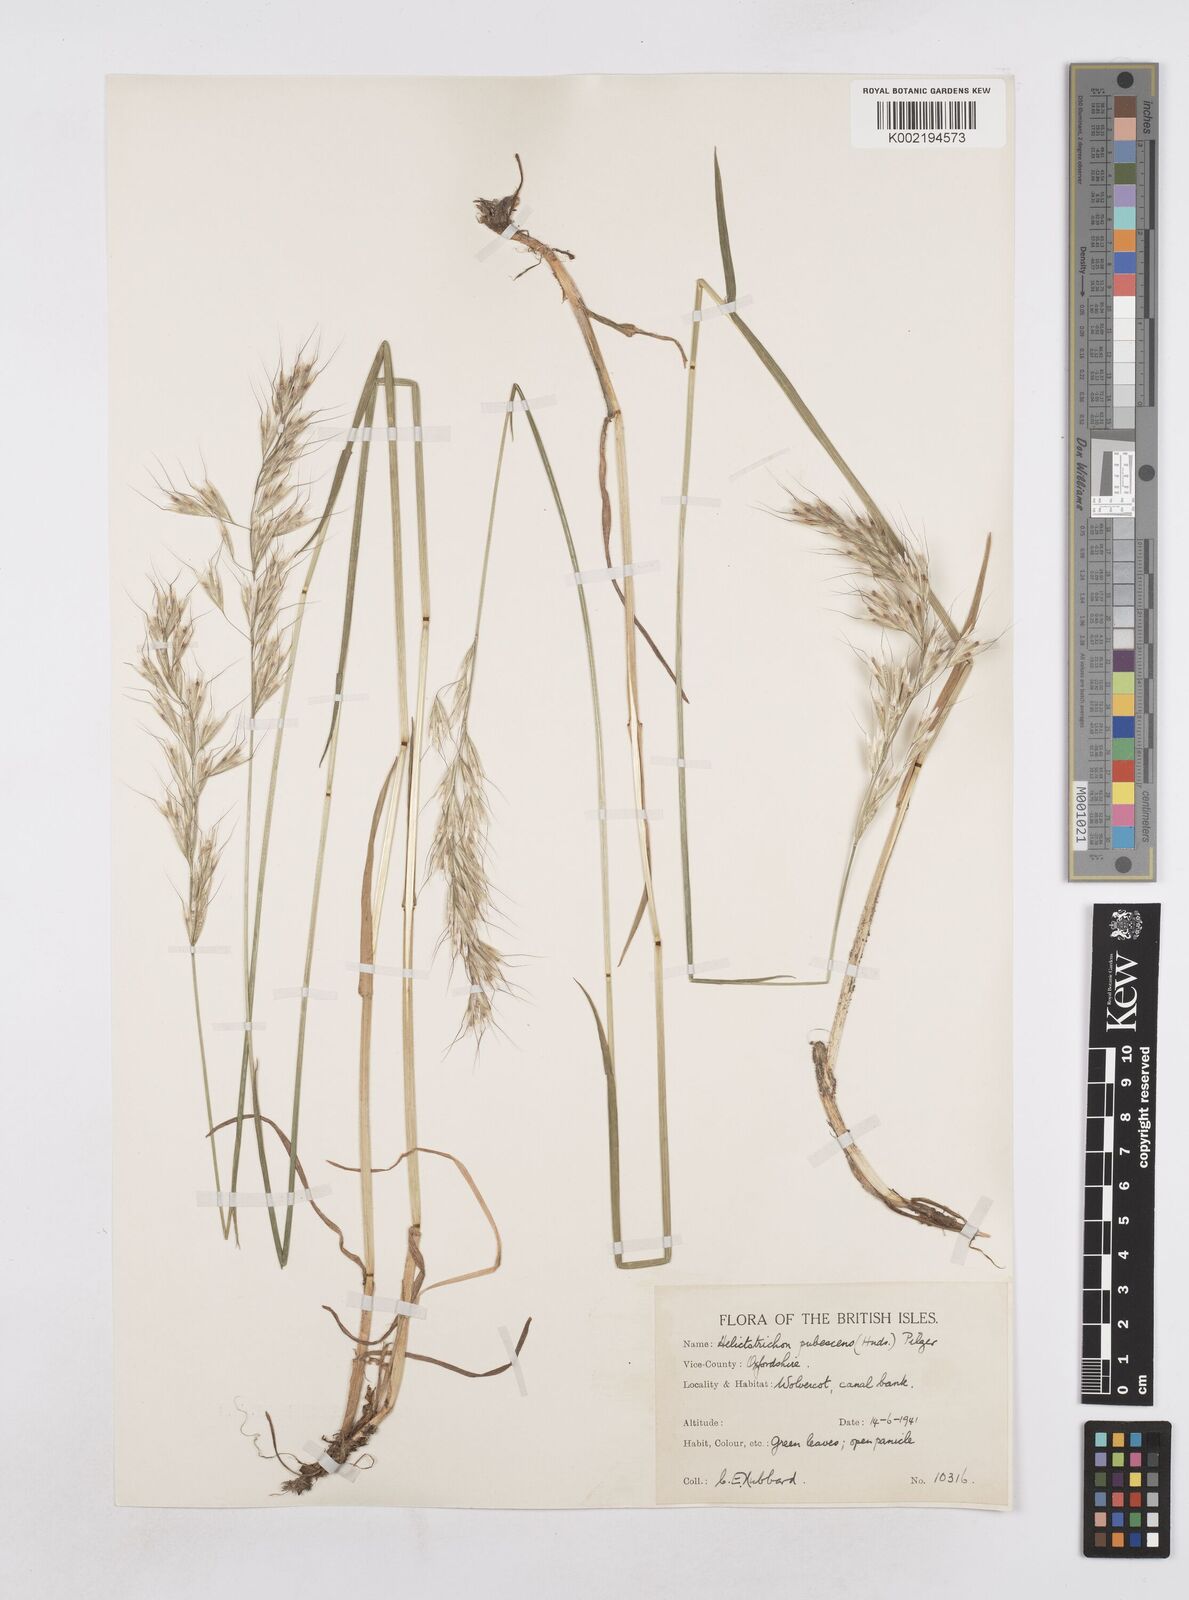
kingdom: Plantae
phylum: Tracheophyta
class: Liliopsida
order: Poales
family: Poaceae
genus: Avenula
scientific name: Avenula pubescens
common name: Downy alpine oatgrass
